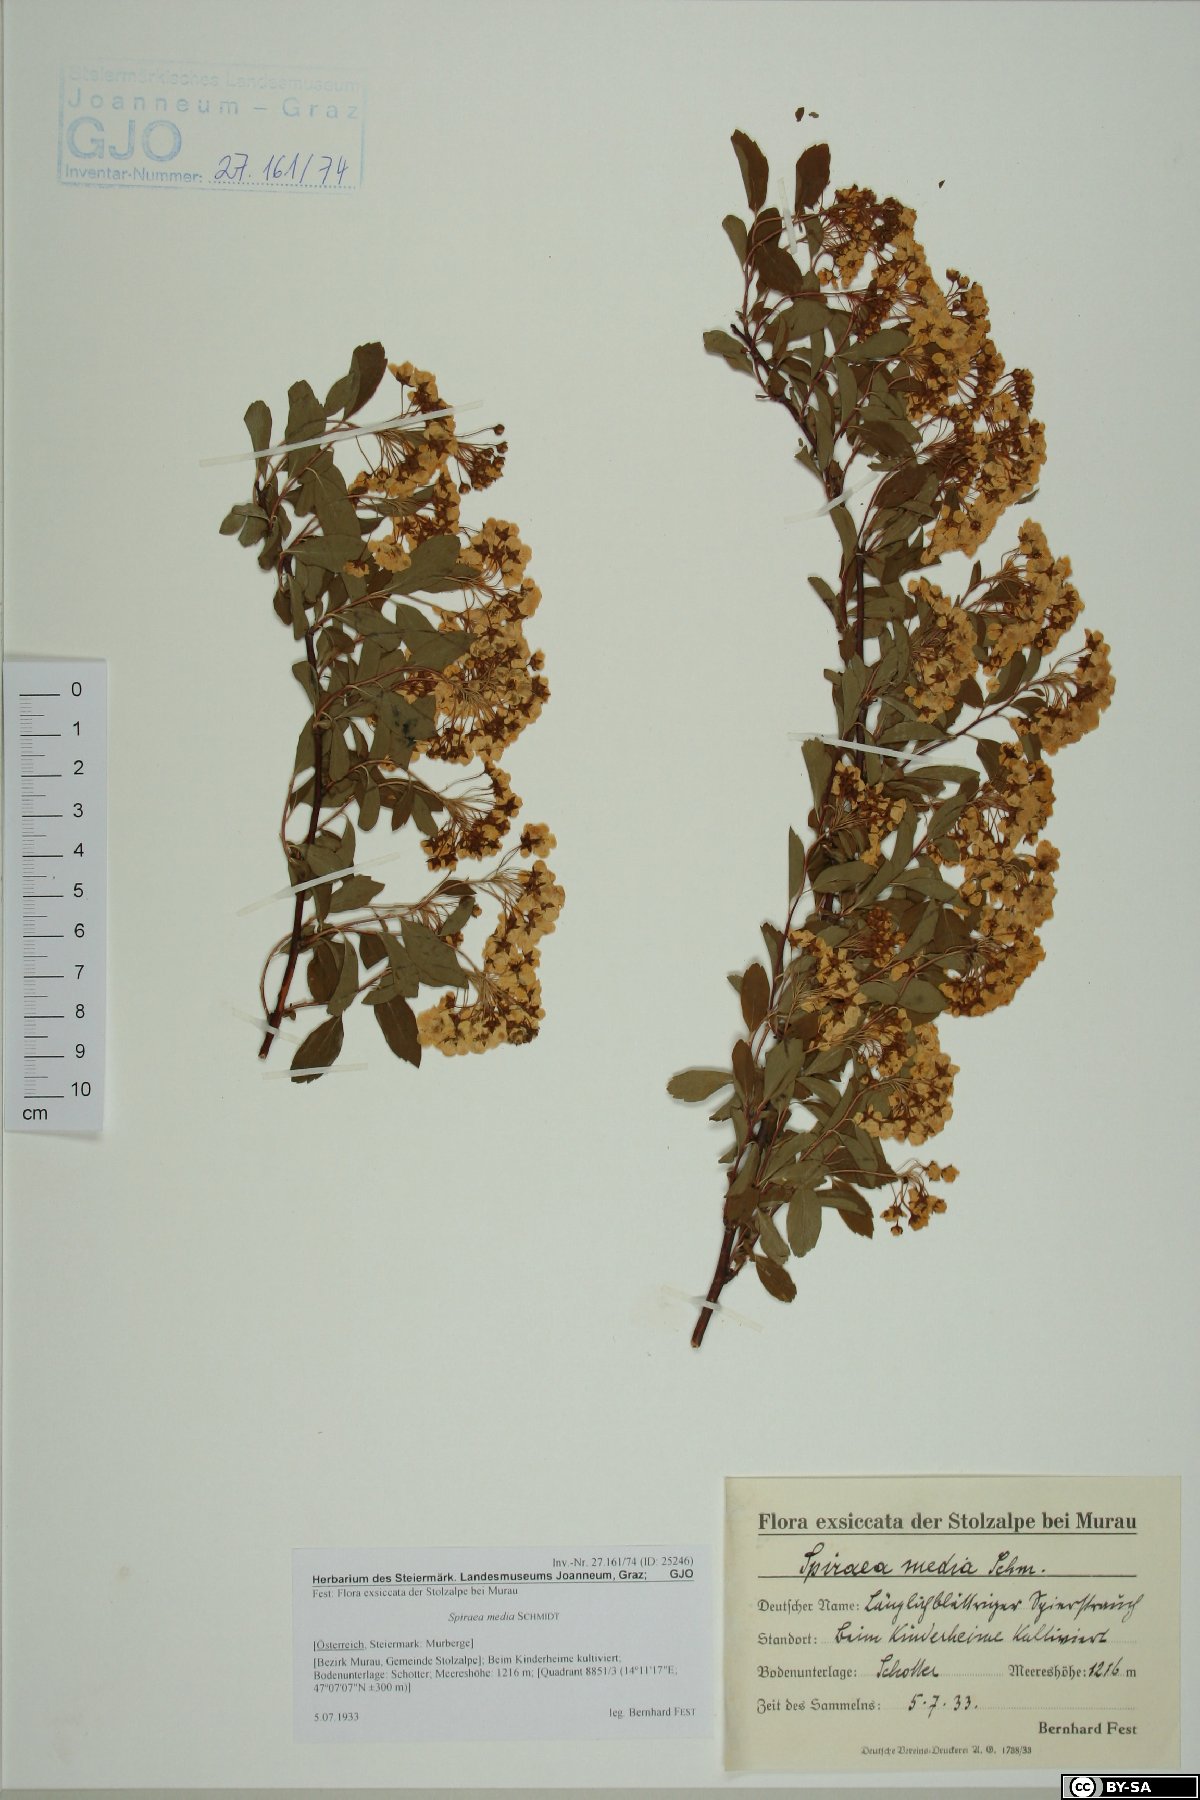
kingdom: Plantae
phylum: Tracheophyta
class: Magnoliopsida
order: Rosales
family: Rosaceae
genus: Spiraea
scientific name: Spiraea media
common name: Russian spiraea
